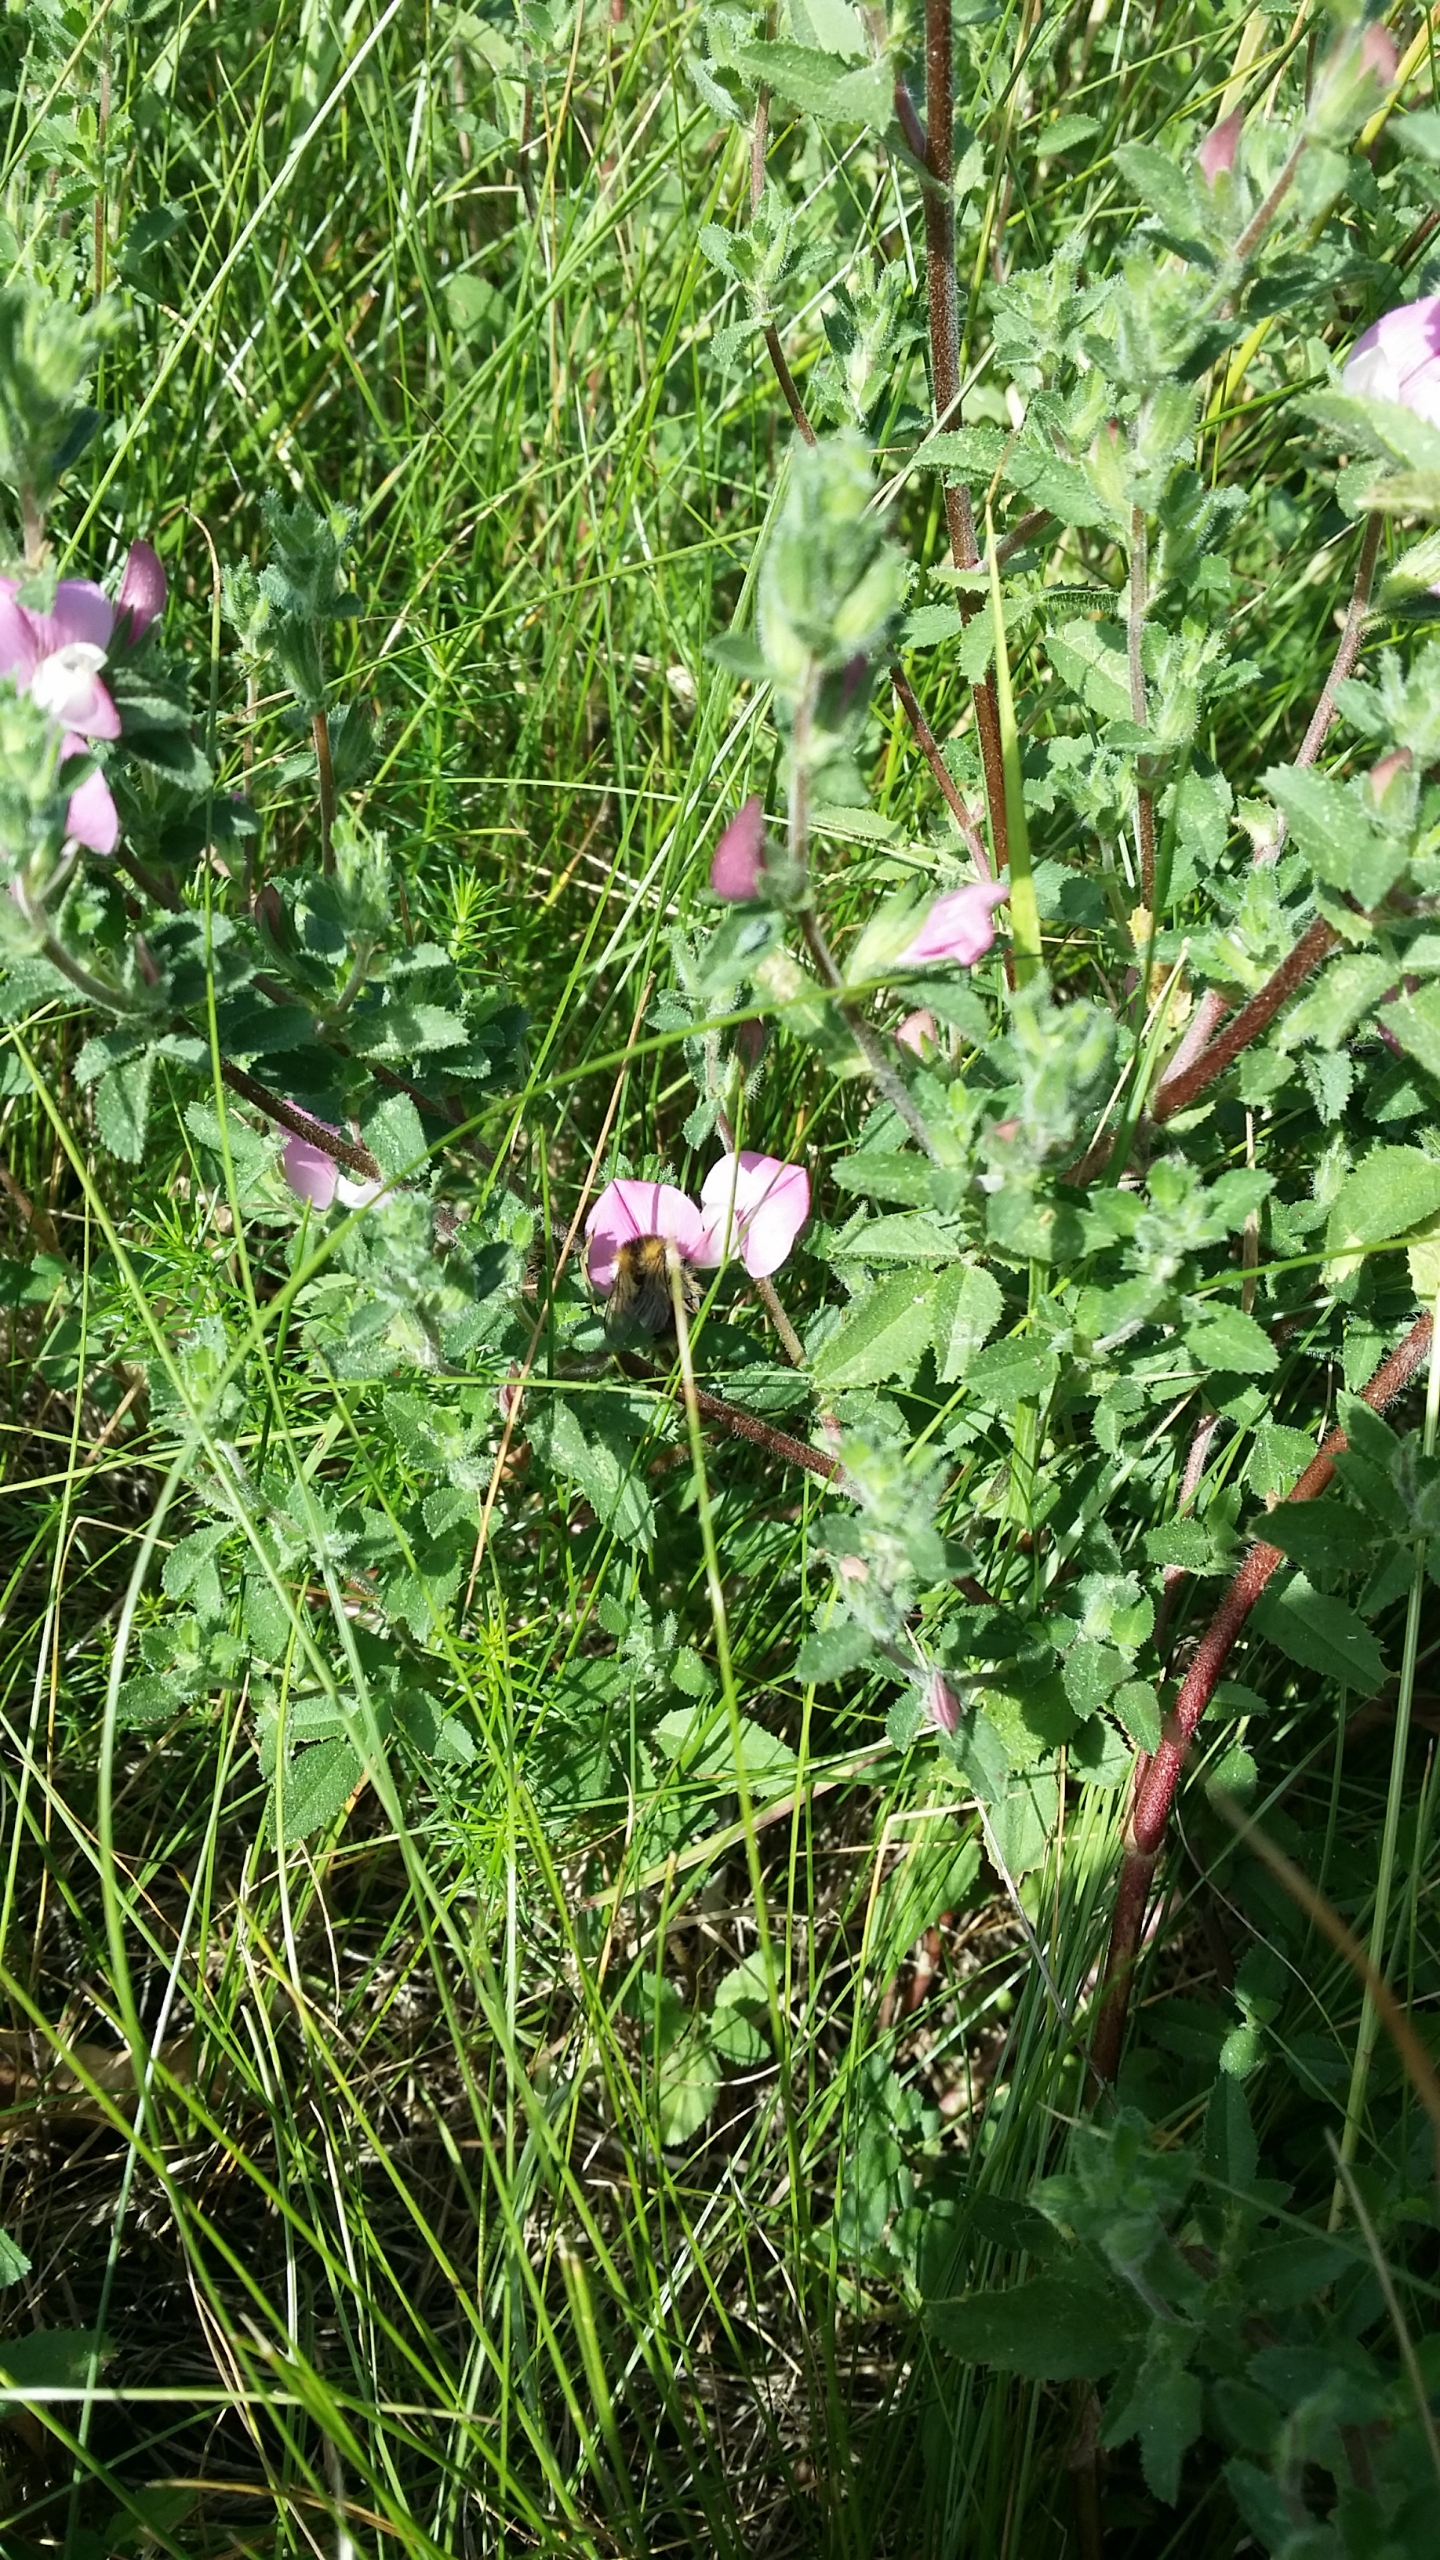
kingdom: Plantae
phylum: Tracheophyta
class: Magnoliopsida
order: Fabales
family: Fabaceae
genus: Ononis
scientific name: Ononis spinosa
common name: Mark-krageklo
